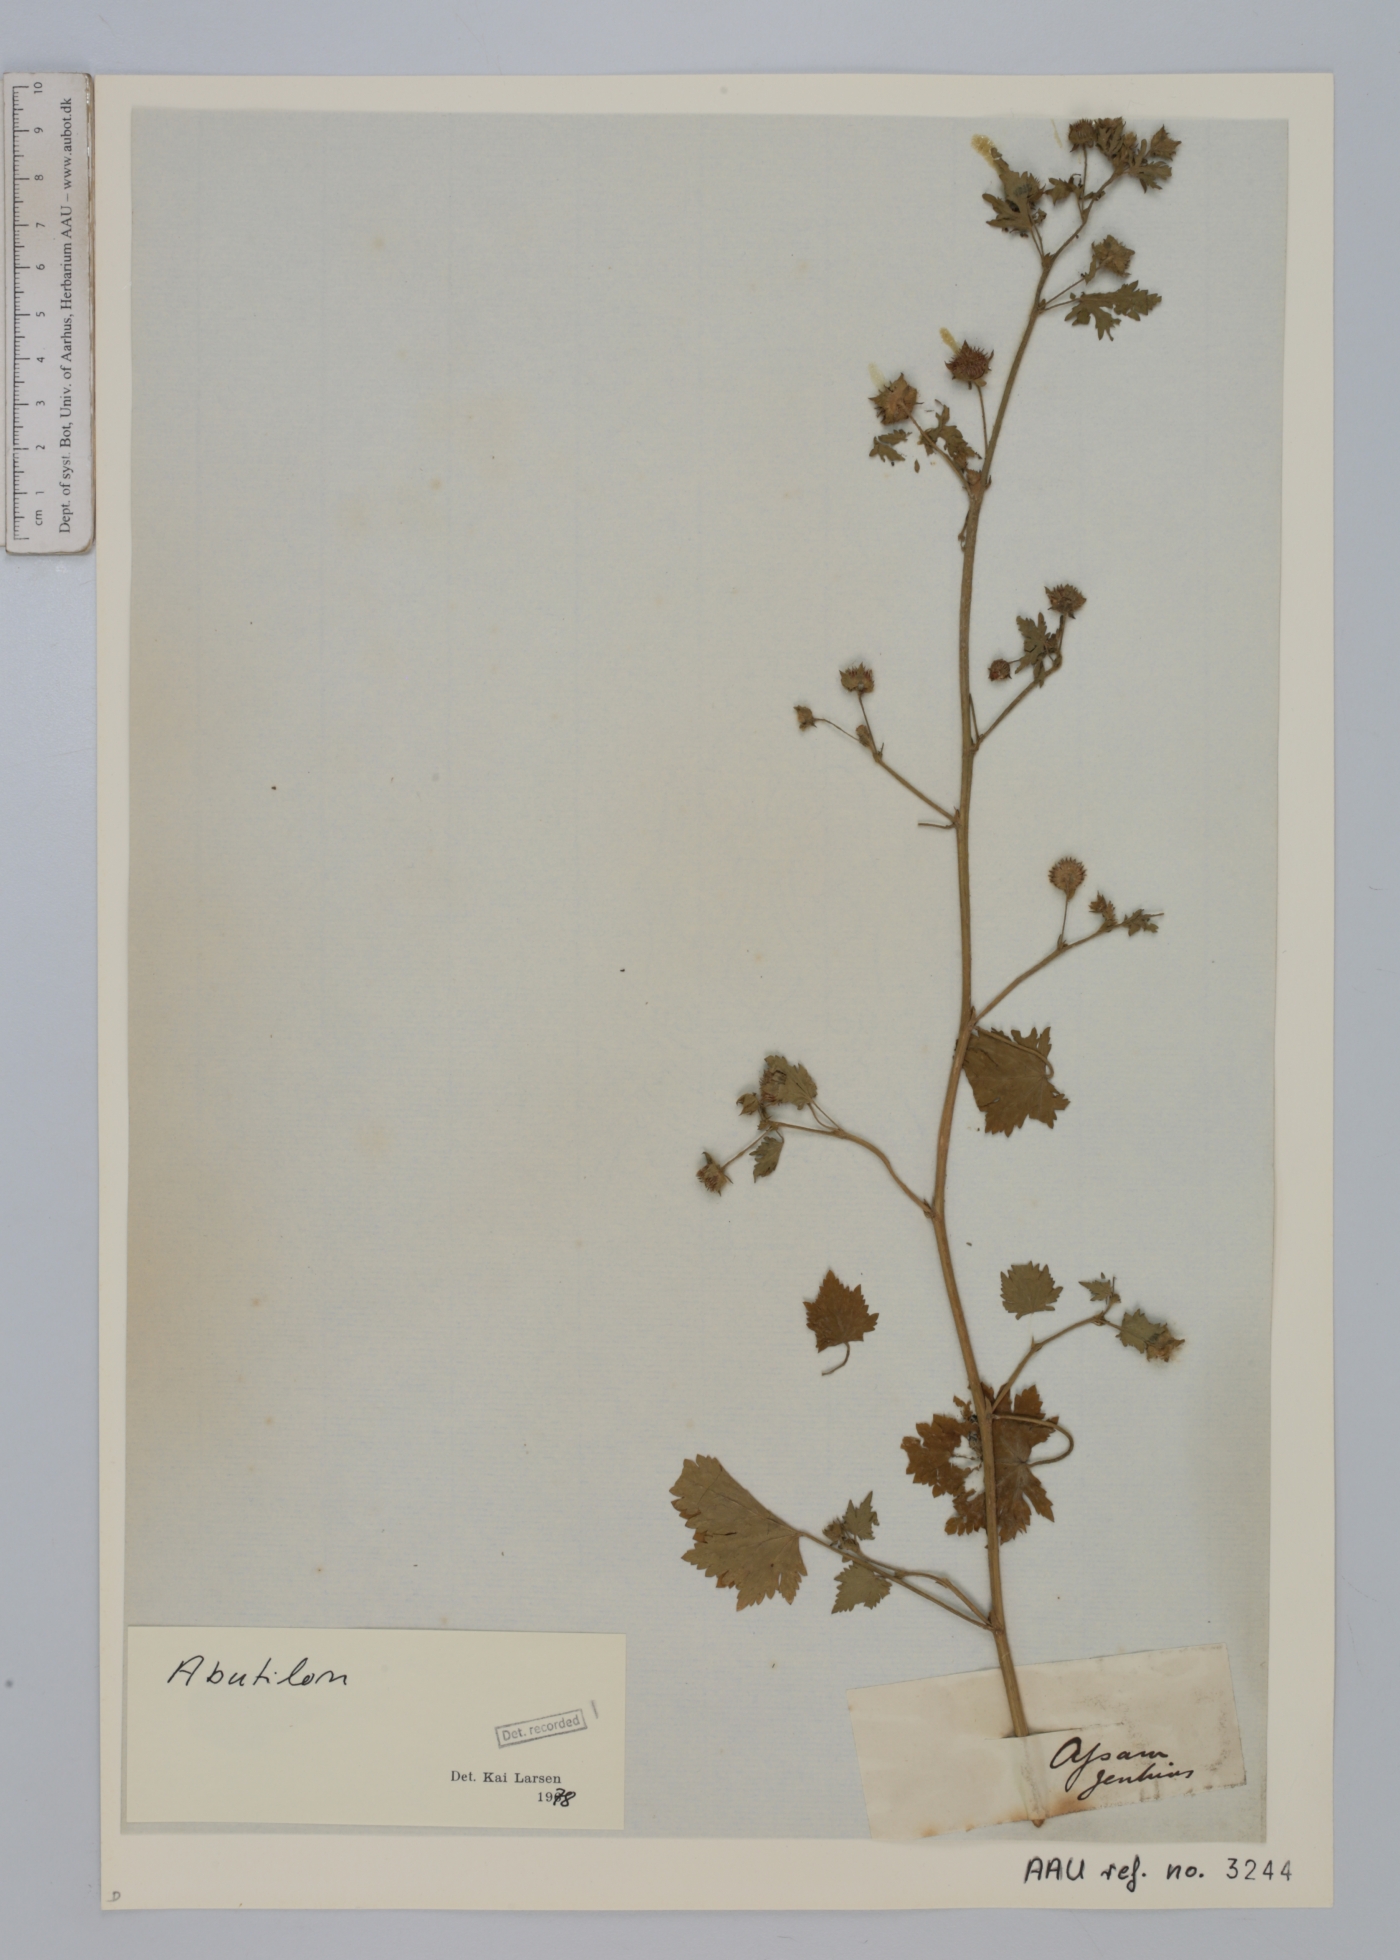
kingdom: Plantae
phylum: Tracheophyta
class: Magnoliopsida
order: Malvales
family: Malvaceae
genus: Abutilon
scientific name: Abutilon
